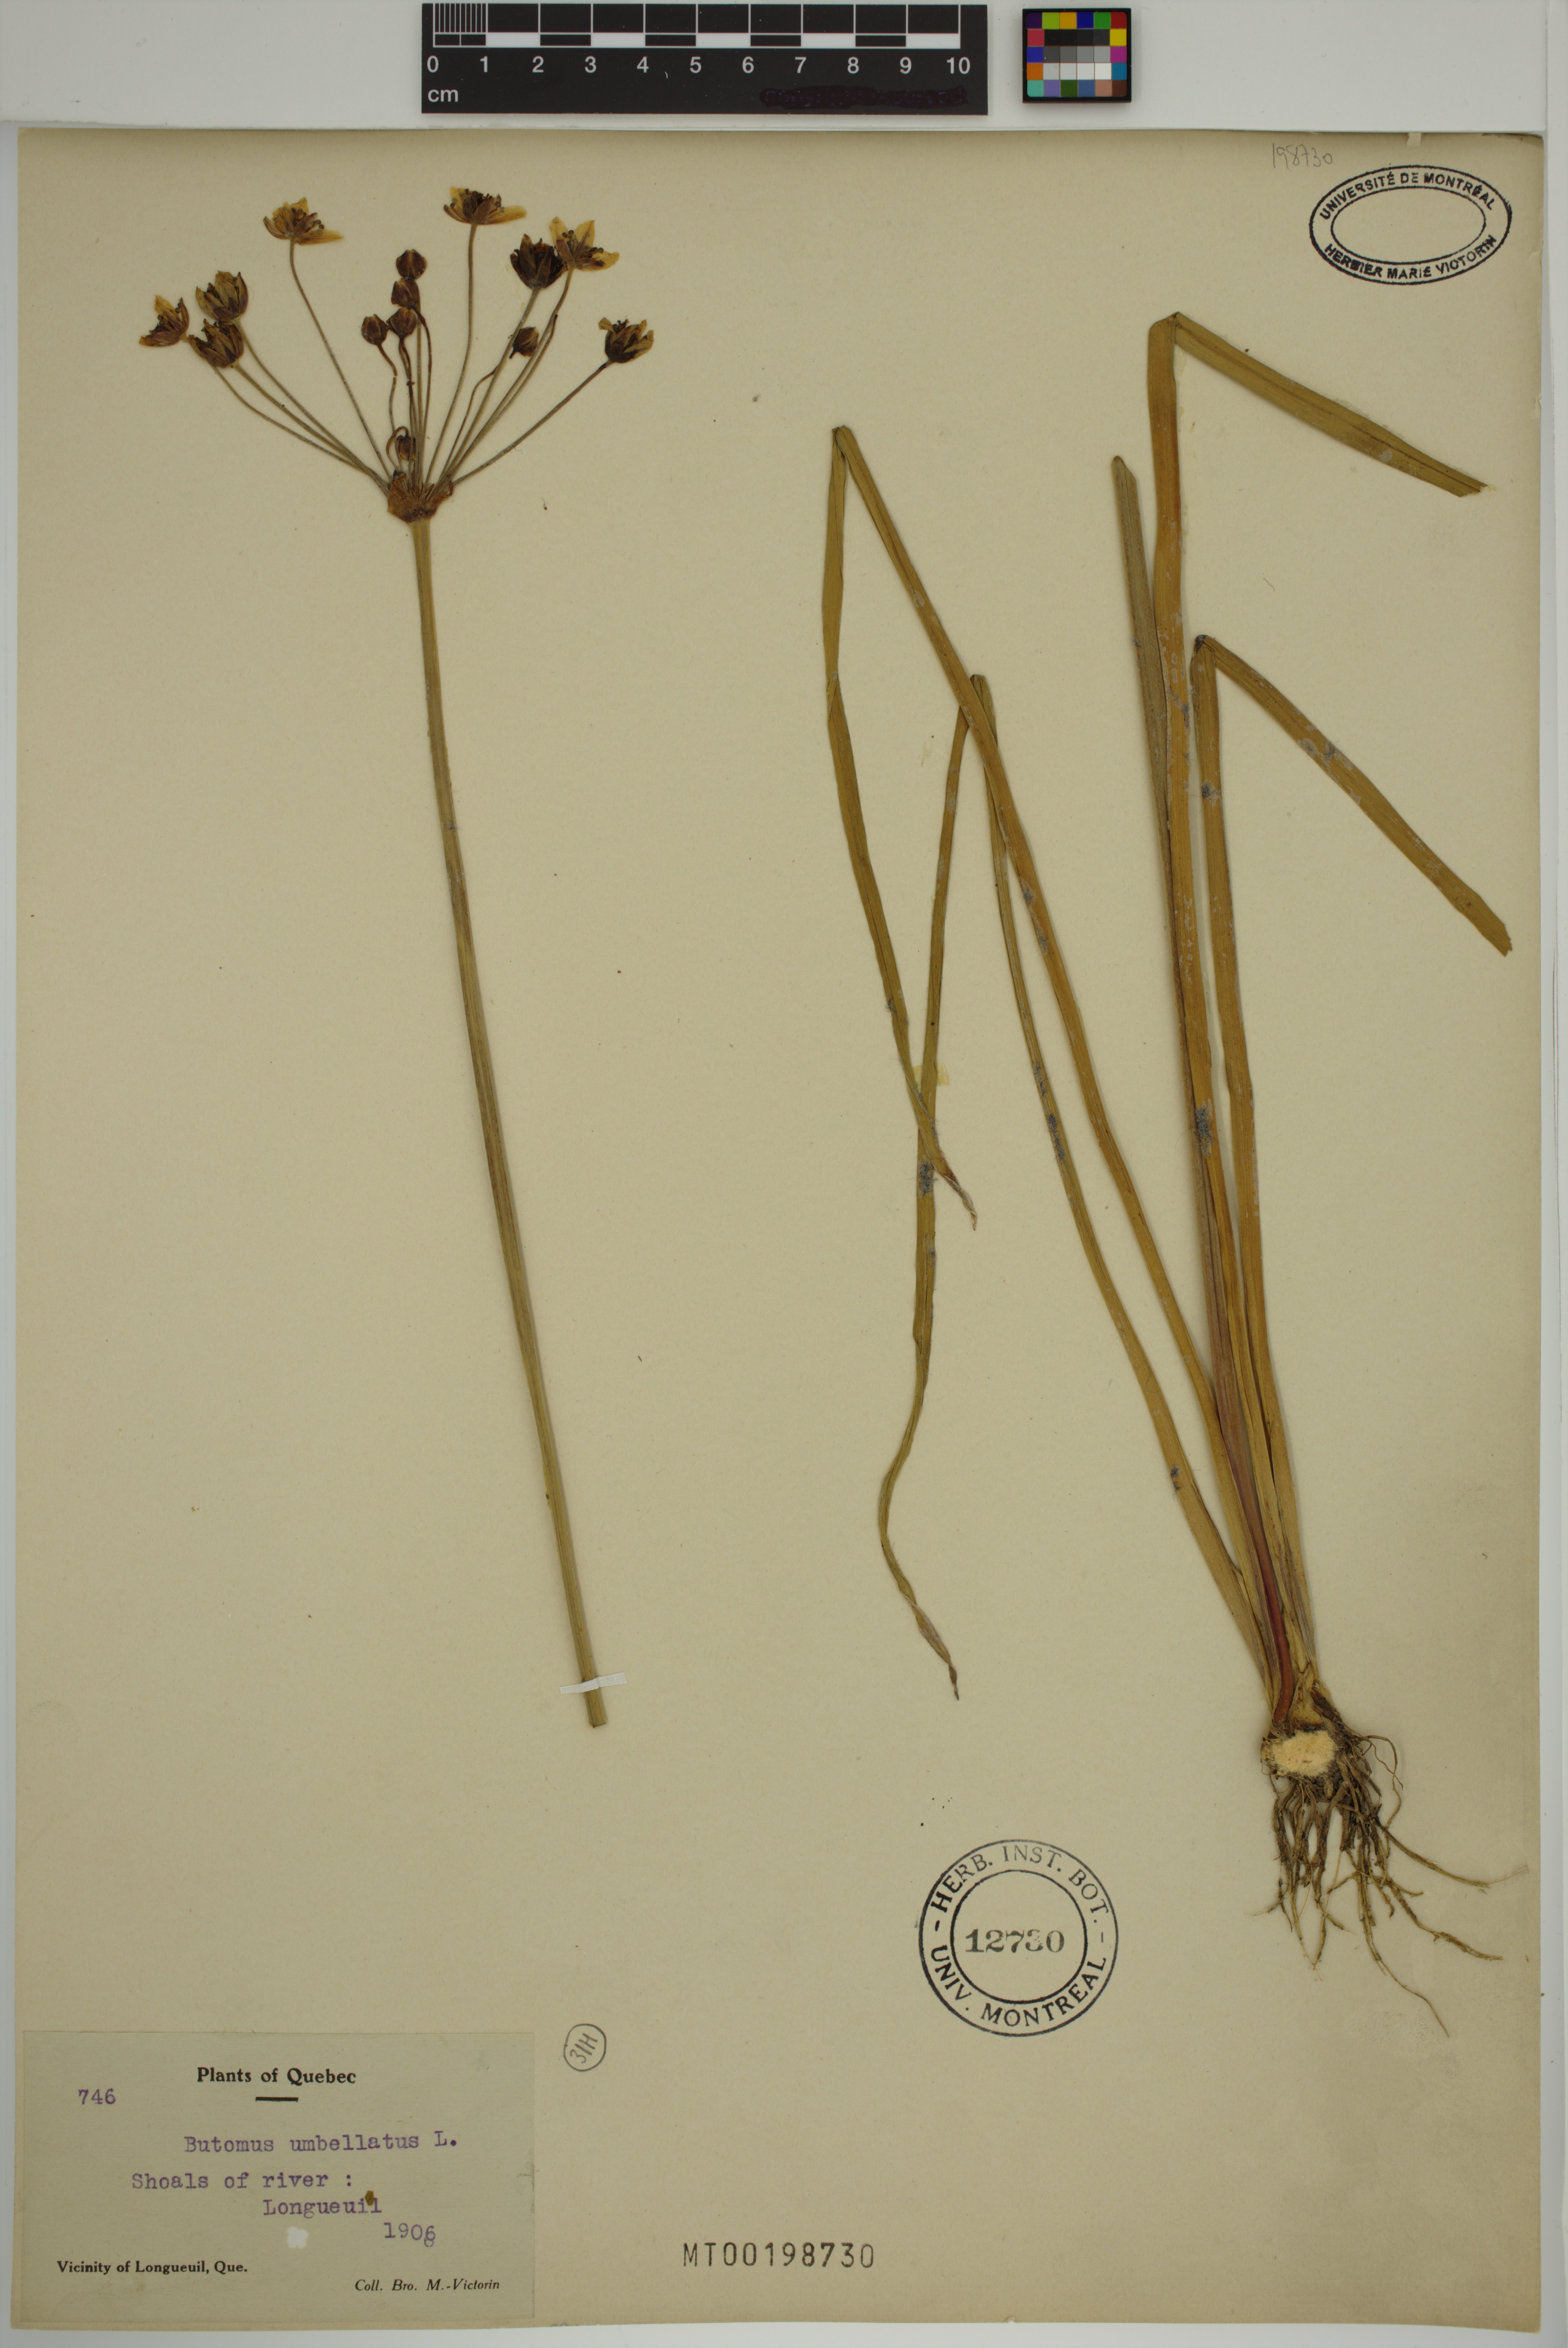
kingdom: Plantae
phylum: Tracheophyta
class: Liliopsida
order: Alismatales
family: Butomaceae
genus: Butomus
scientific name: Butomus umbellatus
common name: Flowering-rush
